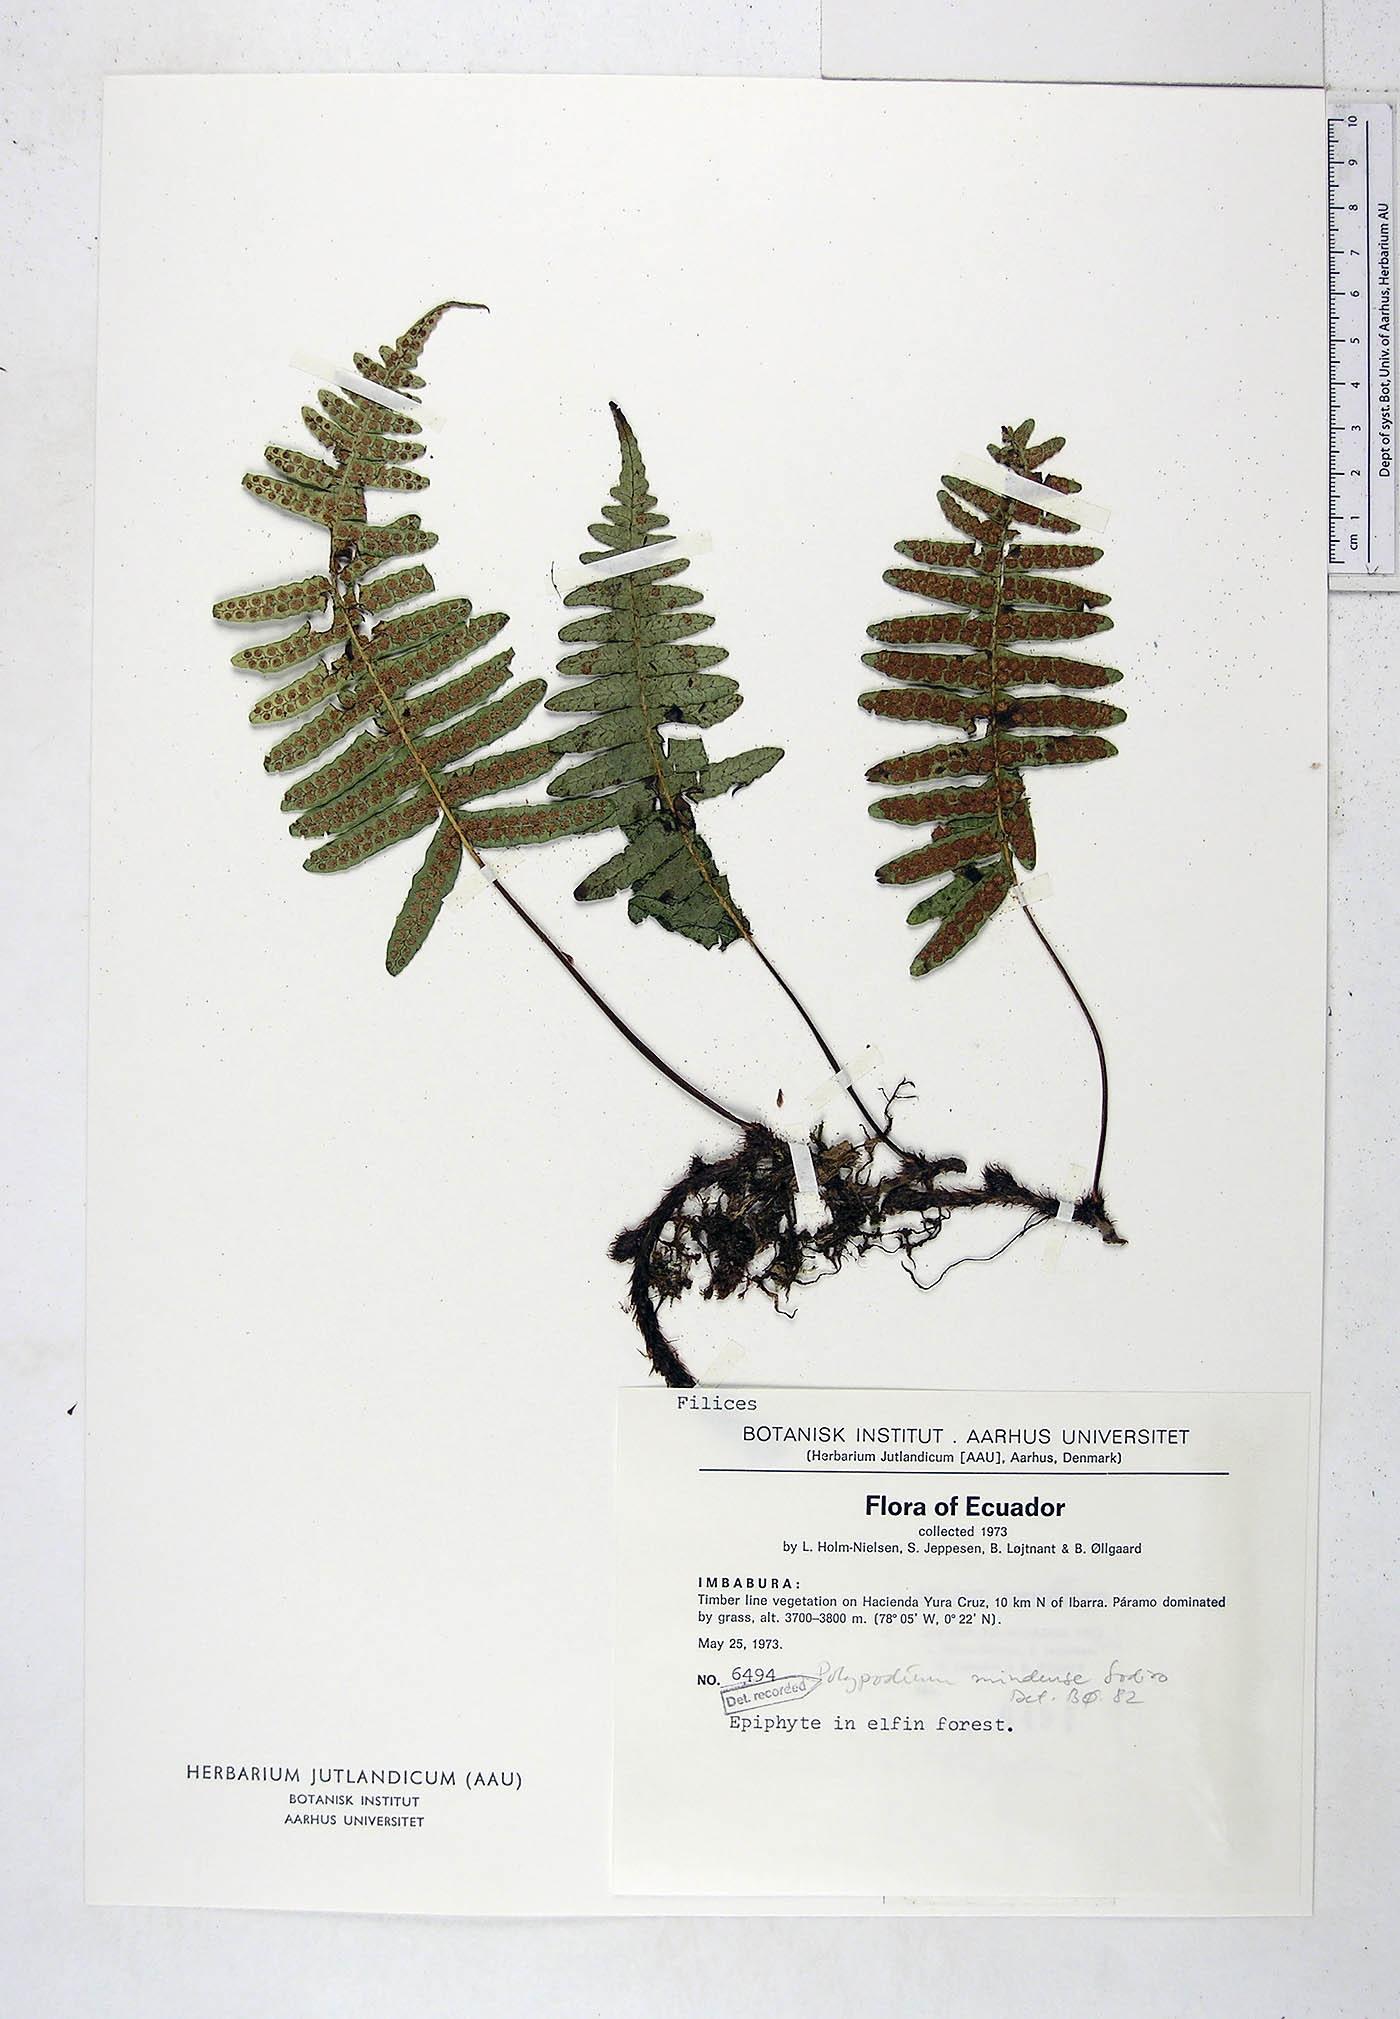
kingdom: Plantae
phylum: Tracheophyta
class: Polypodiopsida
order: Polypodiales
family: Polypodiaceae
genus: Serpocaulon
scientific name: Serpocaulon eleutherophlebium
